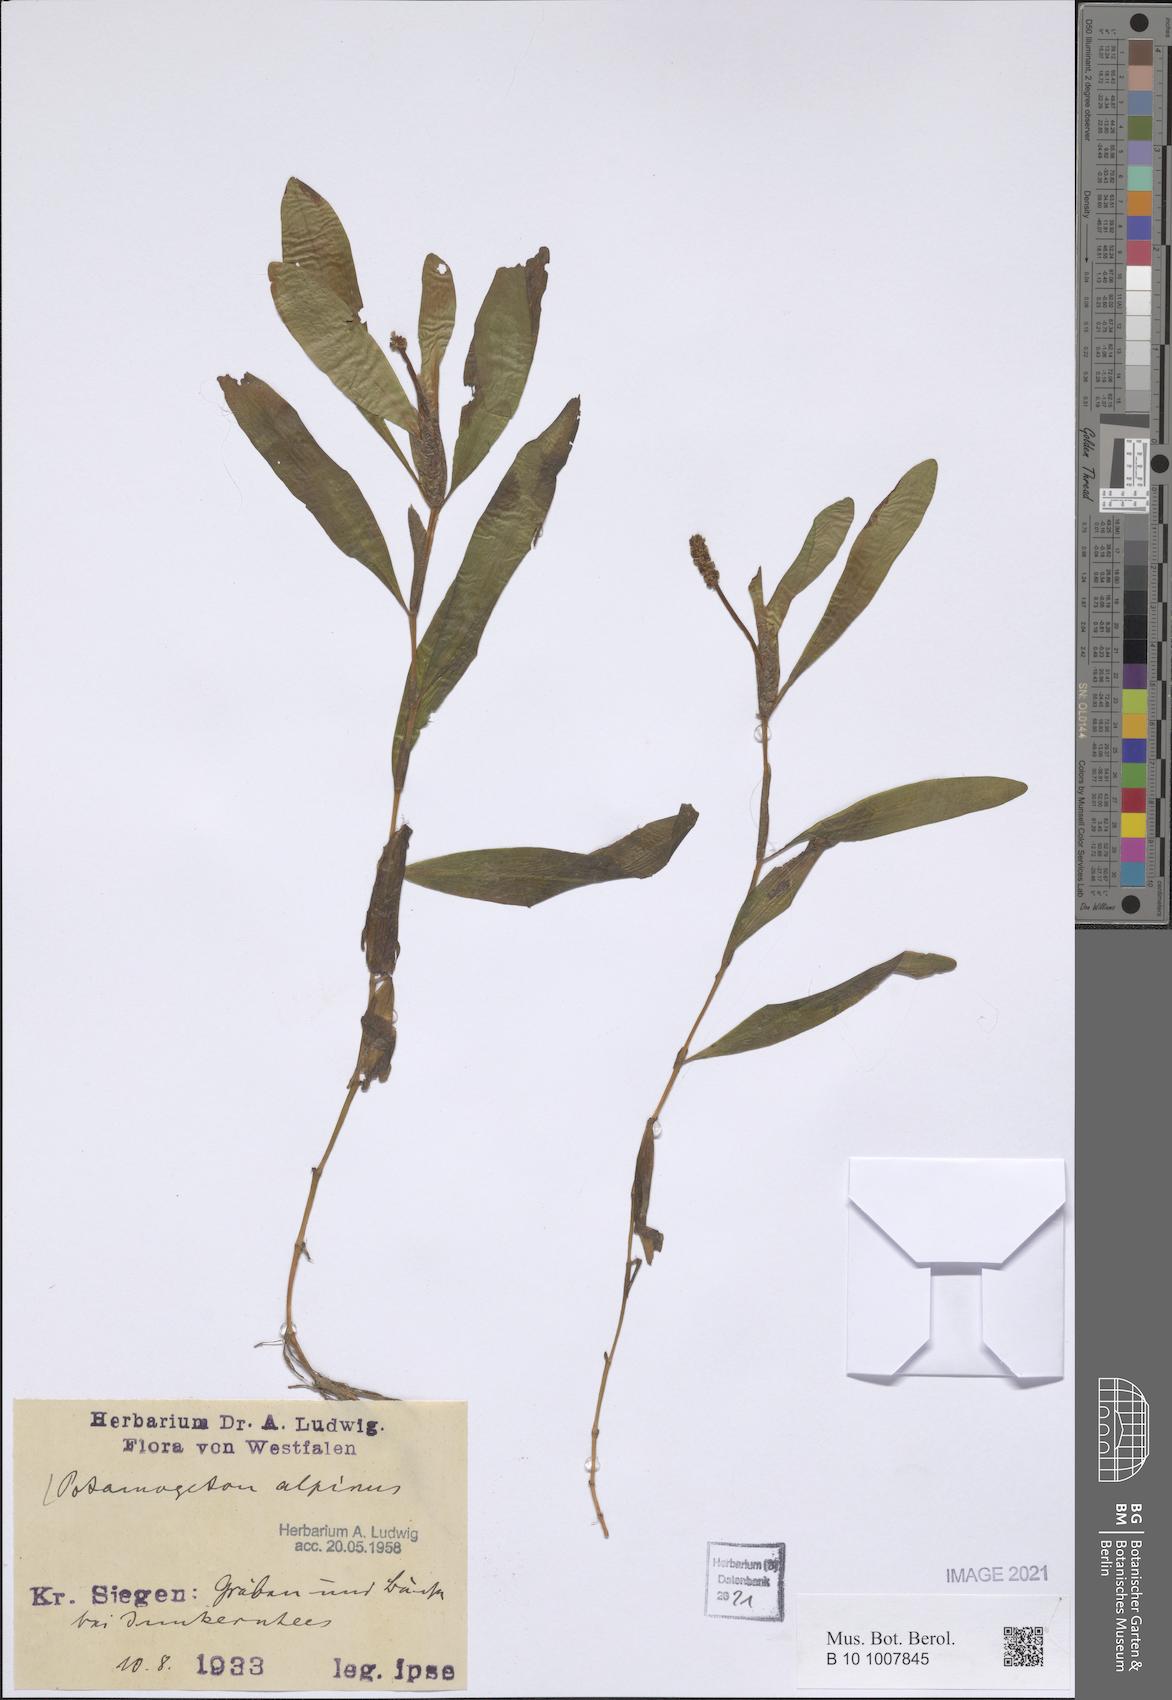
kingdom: Plantae
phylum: Tracheophyta
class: Liliopsida
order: Alismatales
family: Potamogetonaceae
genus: Potamogeton
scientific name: Potamogeton alpinus
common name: Red pondweed
